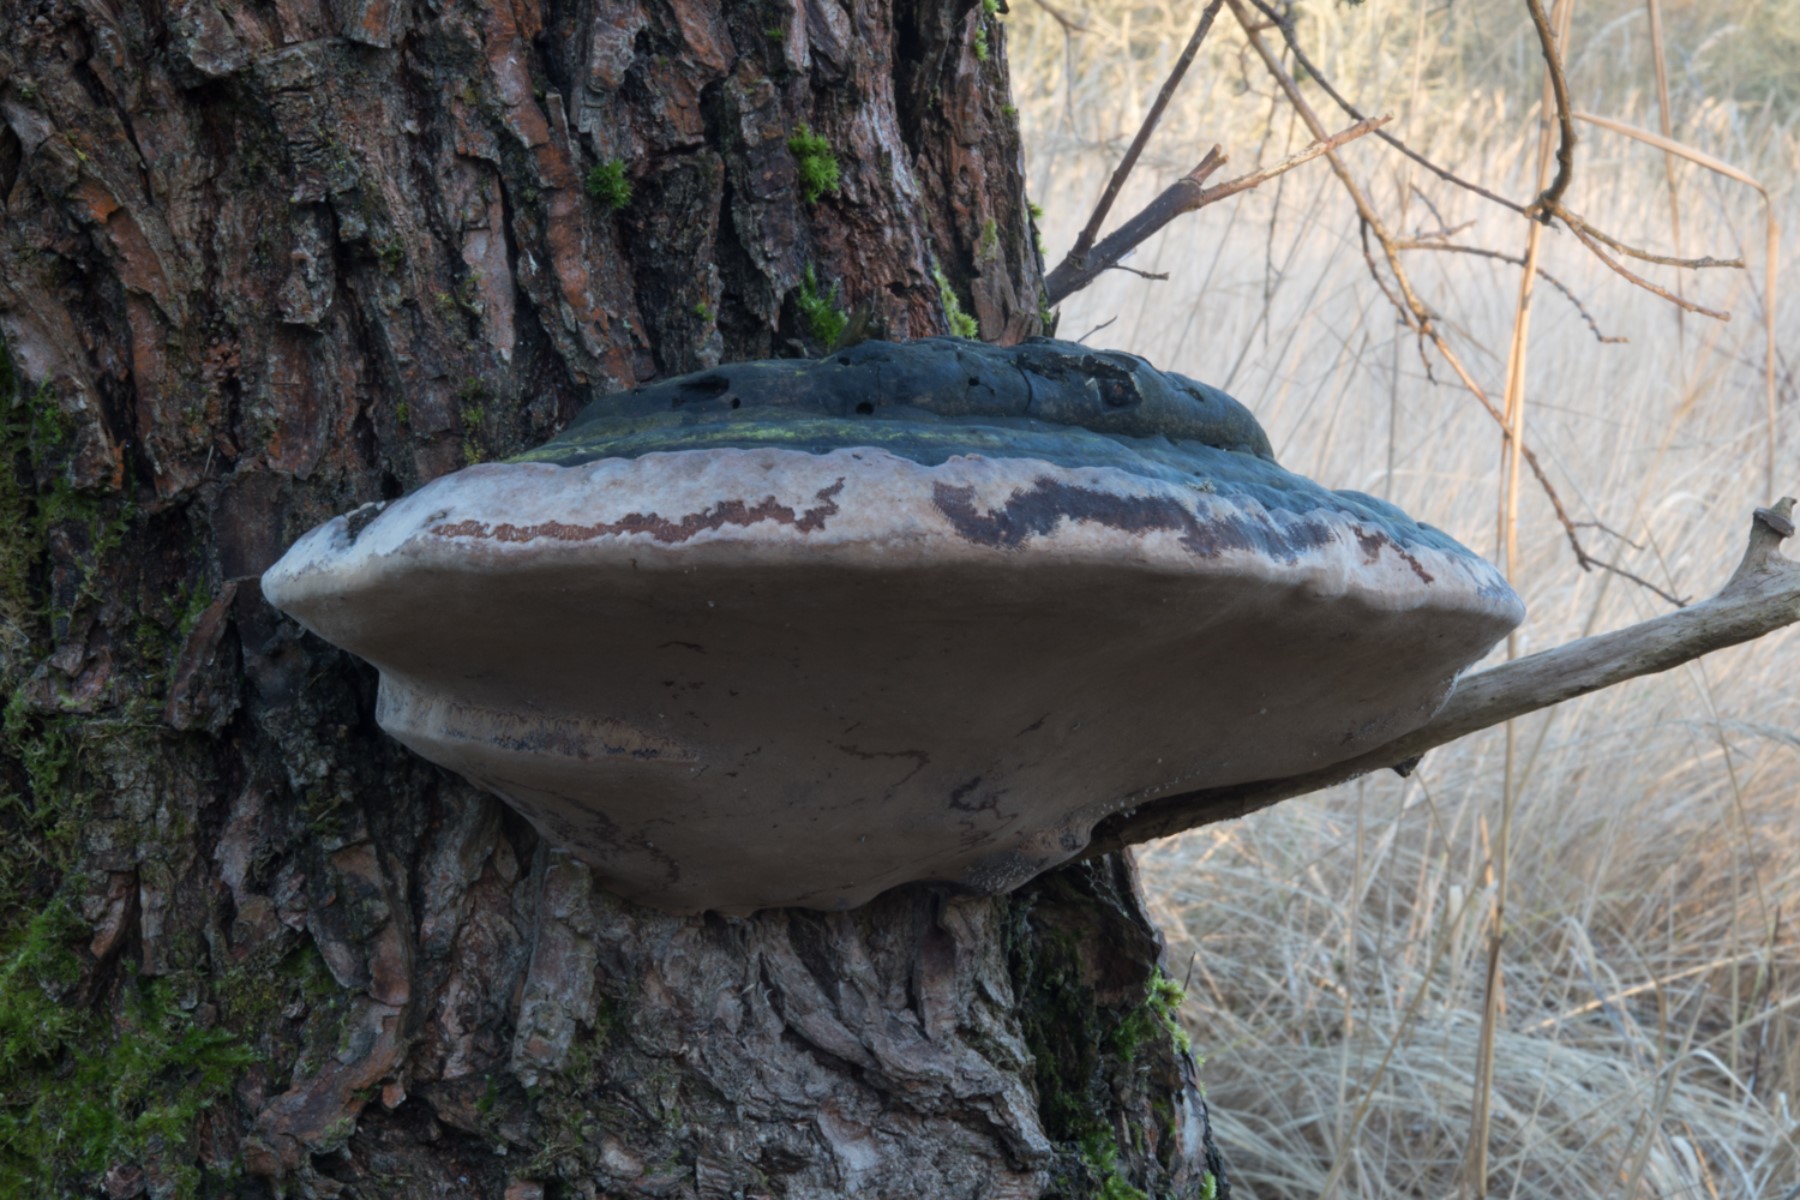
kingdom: Fungi
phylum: Basidiomycota
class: Agaricomycetes
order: Hymenochaetales
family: Hymenochaetaceae
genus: Phellinus
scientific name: Phellinus igniarius
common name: almindelig ildporesvamp
